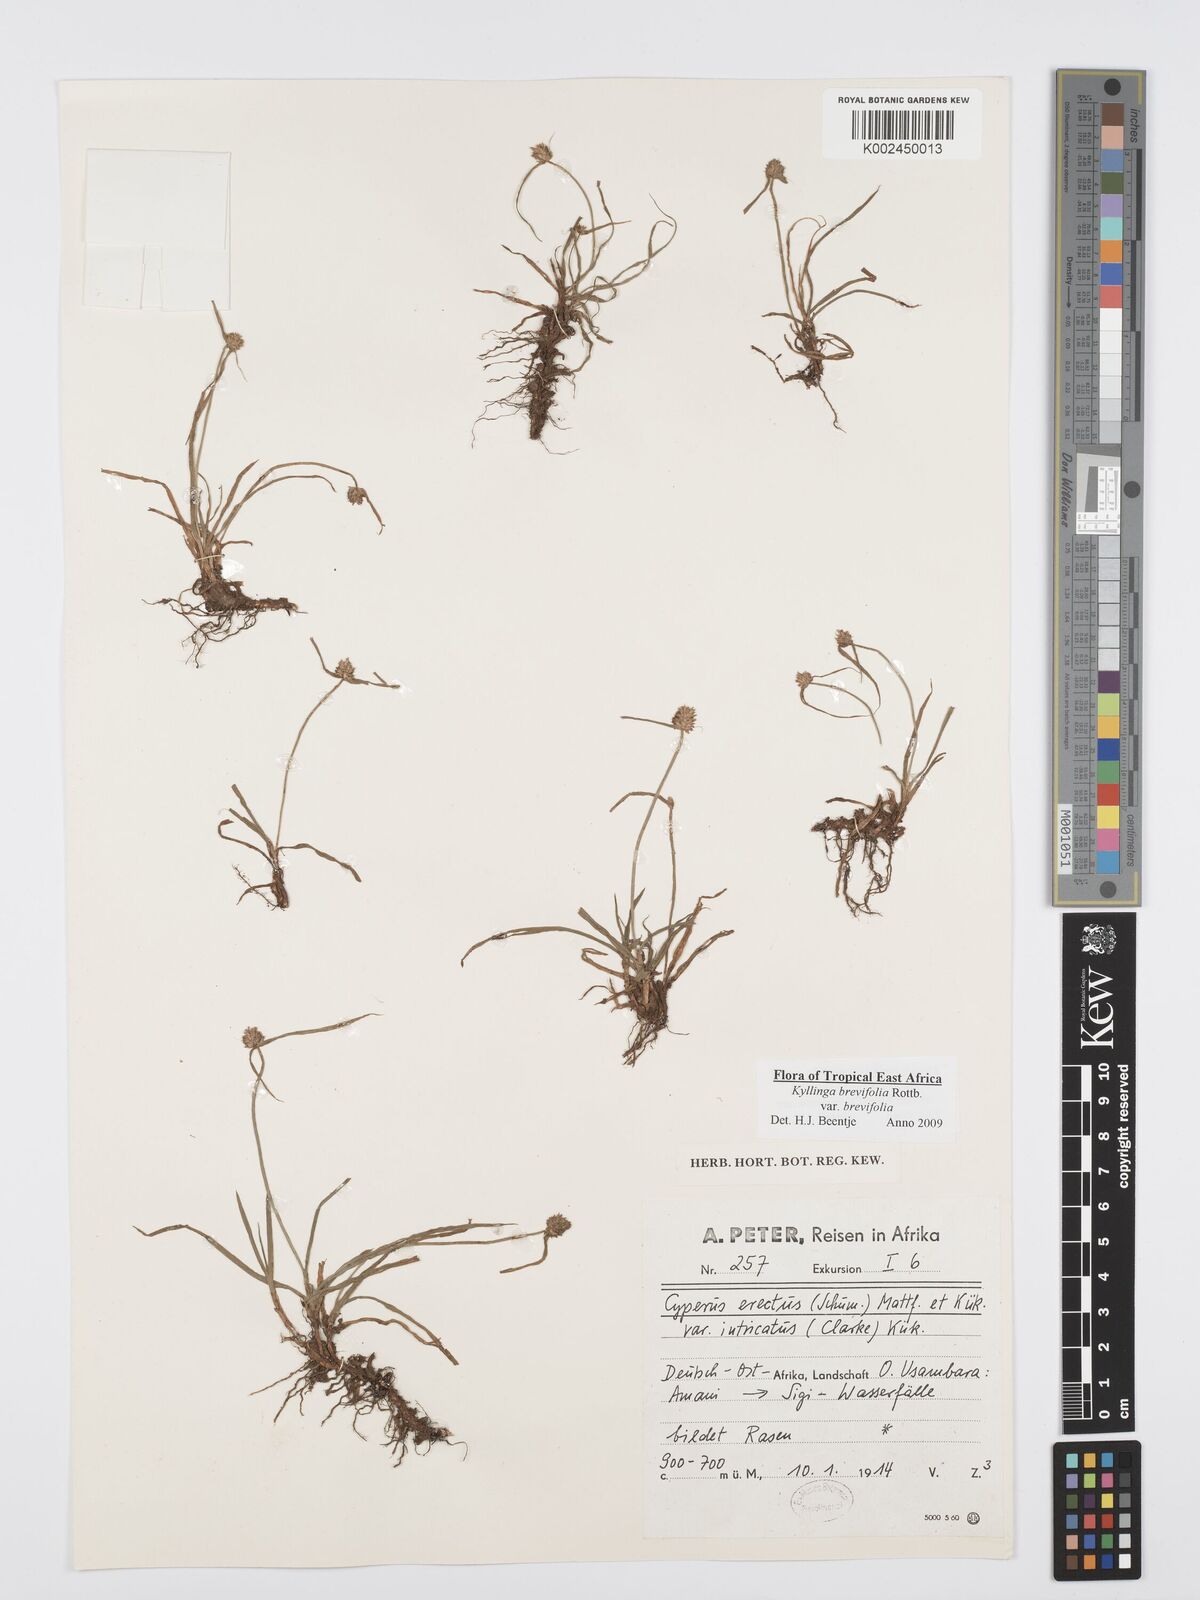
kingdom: Plantae
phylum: Tracheophyta
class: Liliopsida
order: Poales
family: Cyperaceae
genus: Cyperus
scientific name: Cyperus brevifolius
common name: Globe kyllinga
